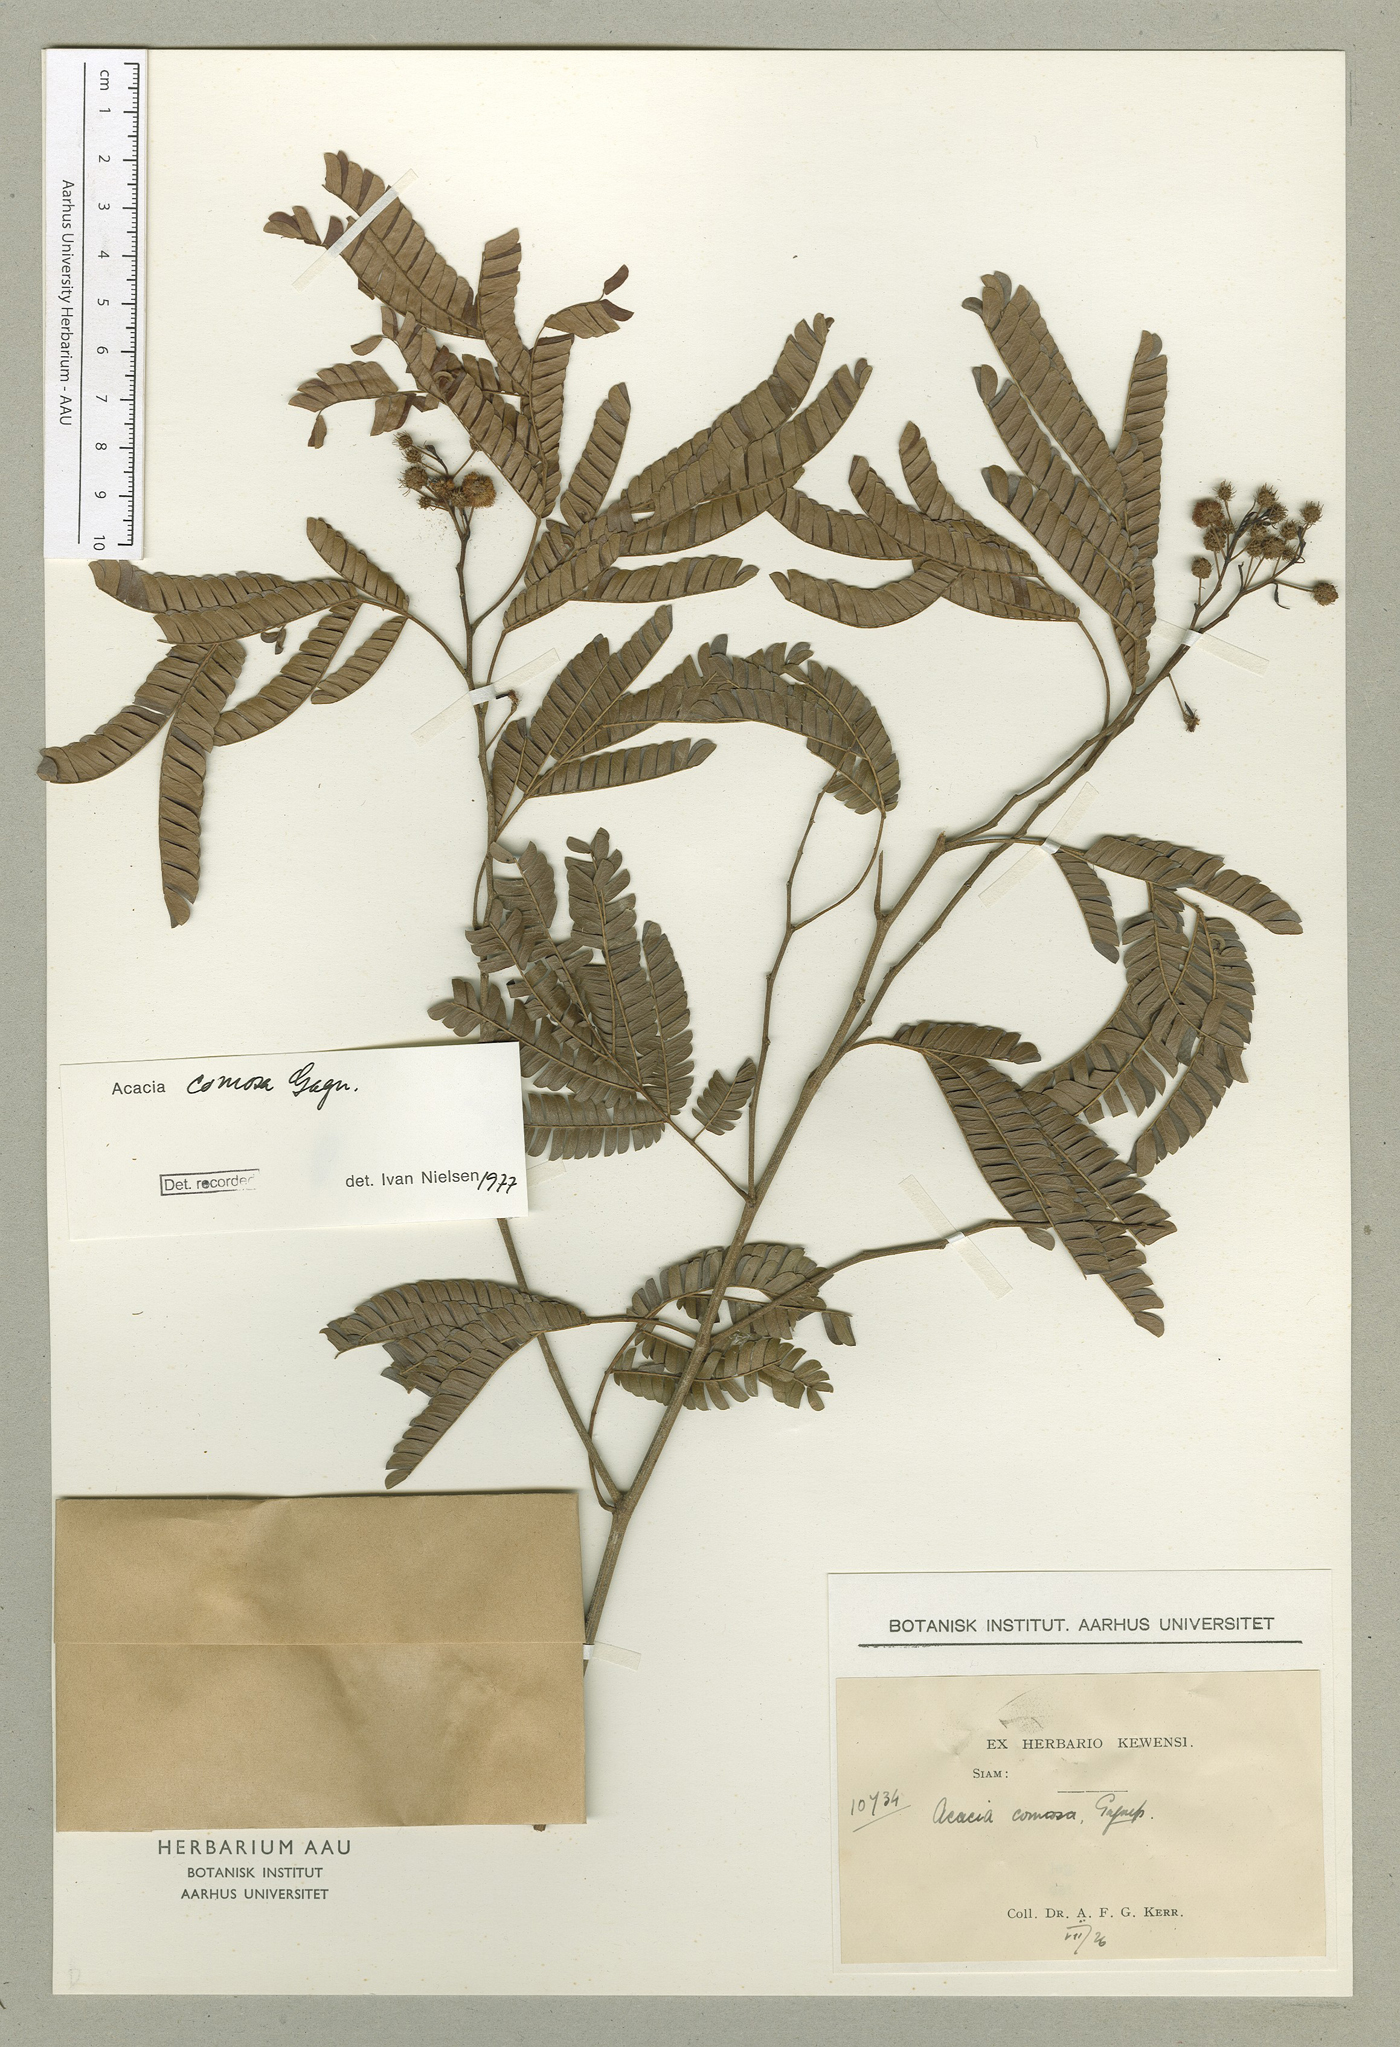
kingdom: Plantae
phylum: Tracheophyta
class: Magnoliopsida
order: Fabales
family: Fabaceae
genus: Senegalia
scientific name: Senegalia comosa
